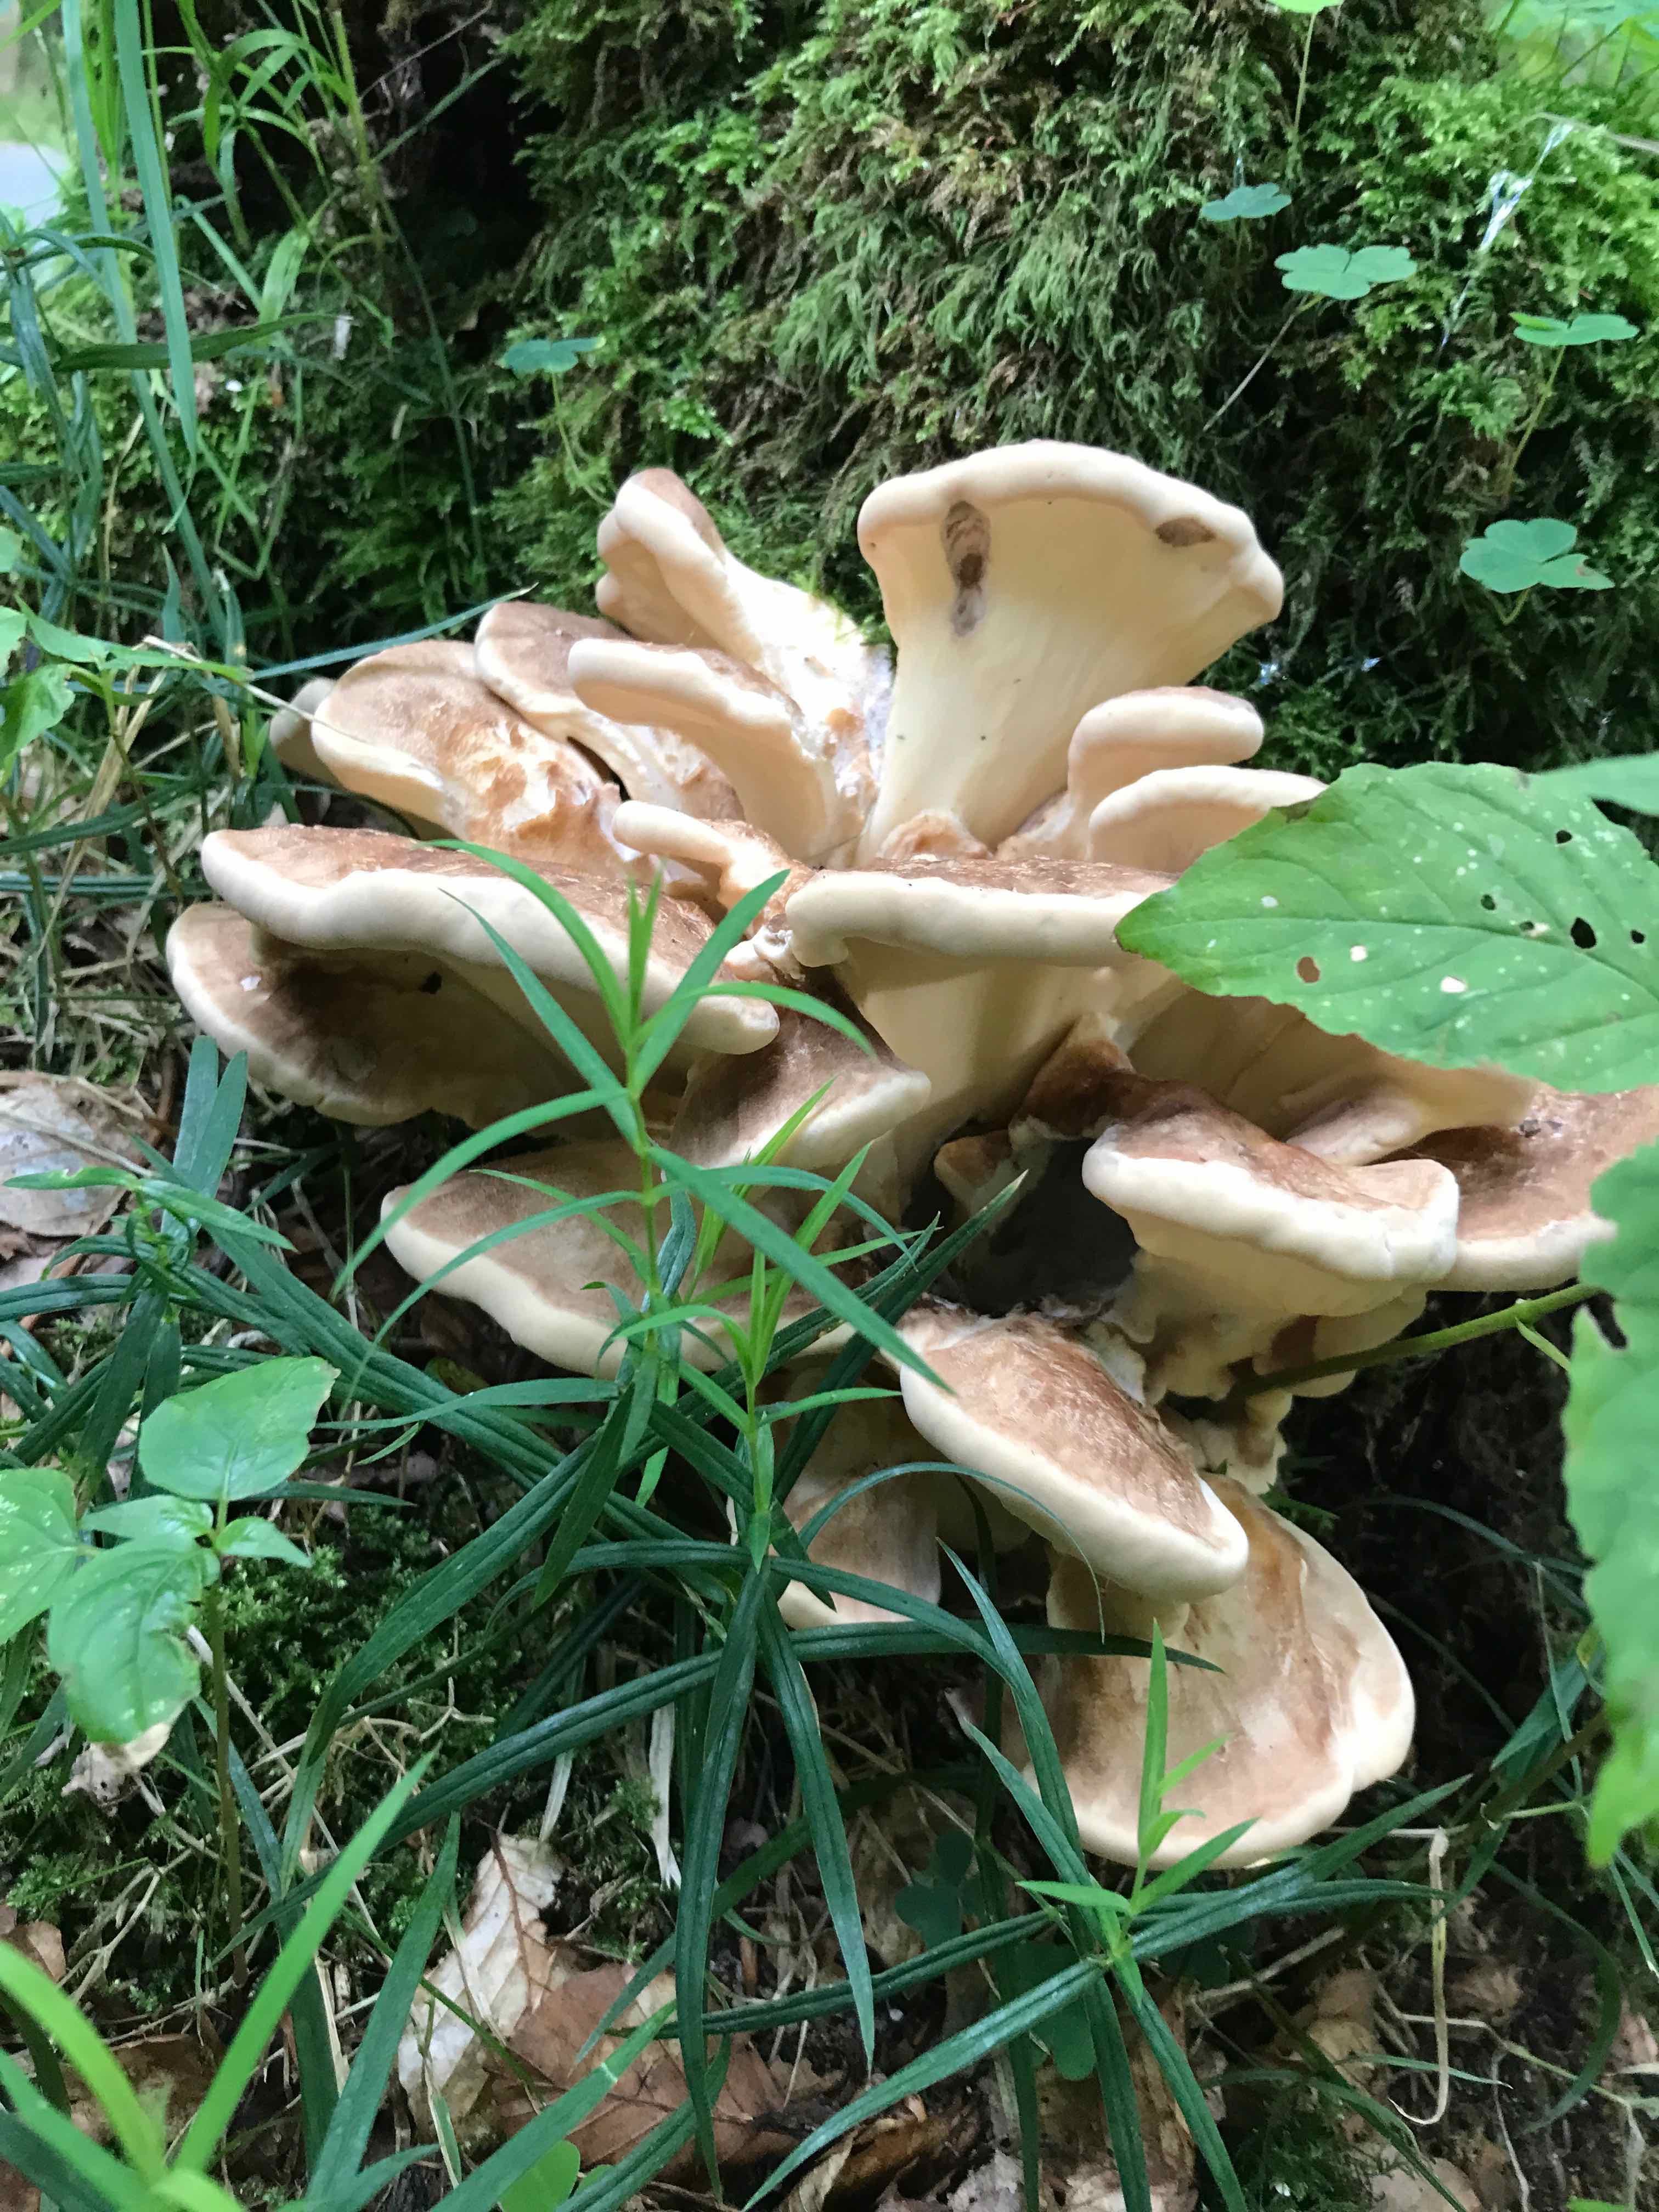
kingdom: Fungi
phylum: Basidiomycota
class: Agaricomycetes
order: Polyporales
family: Meripilaceae
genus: Meripilus
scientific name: Meripilus giganteus
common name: kæmpeporesvamp
